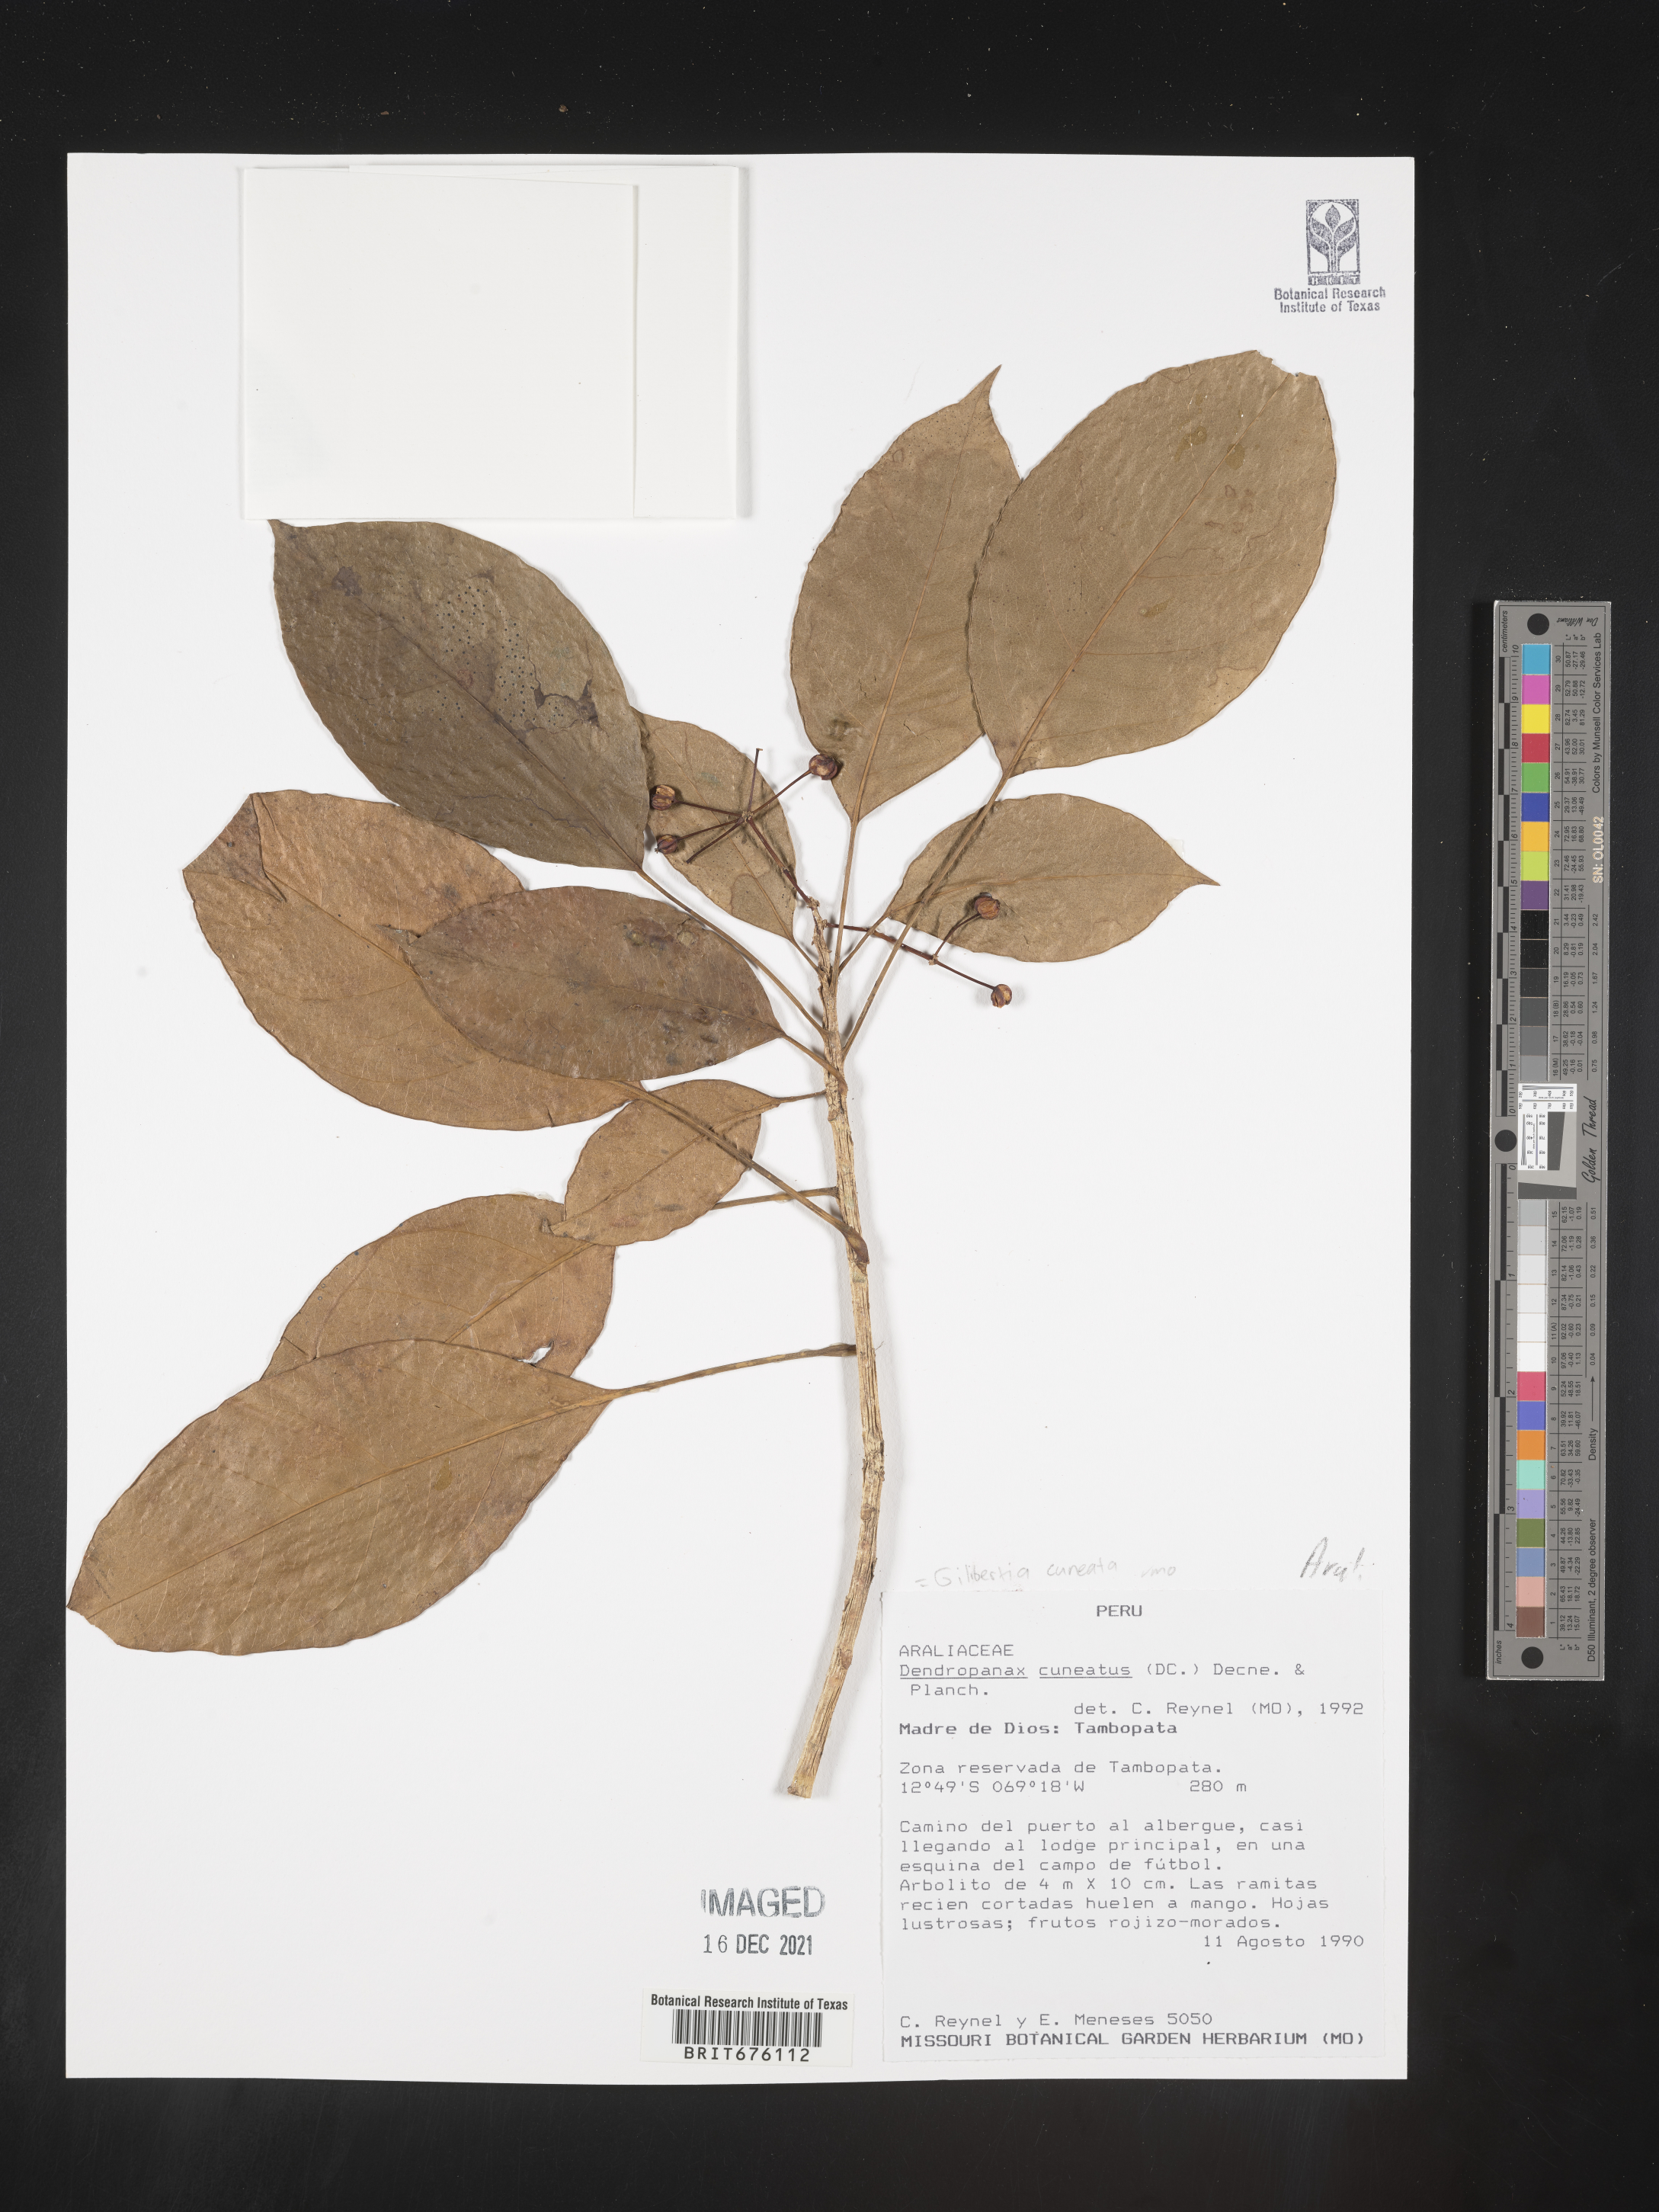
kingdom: Plantae
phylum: Tracheophyta
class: Magnoliopsida
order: Apiales
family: Araliaceae
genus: Dendropanax
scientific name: Dendropanax
